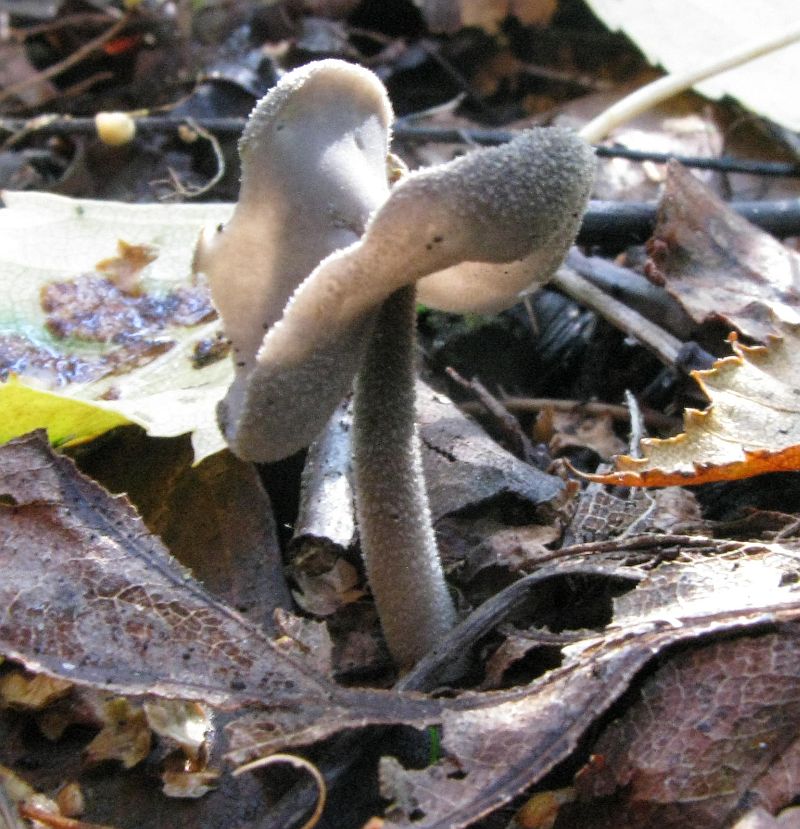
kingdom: Fungi
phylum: Ascomycota
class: Pezizomycetes
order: Pezizales
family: Helvellaceae
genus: Helvella
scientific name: Helvella macropus
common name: højstokket foldhat
